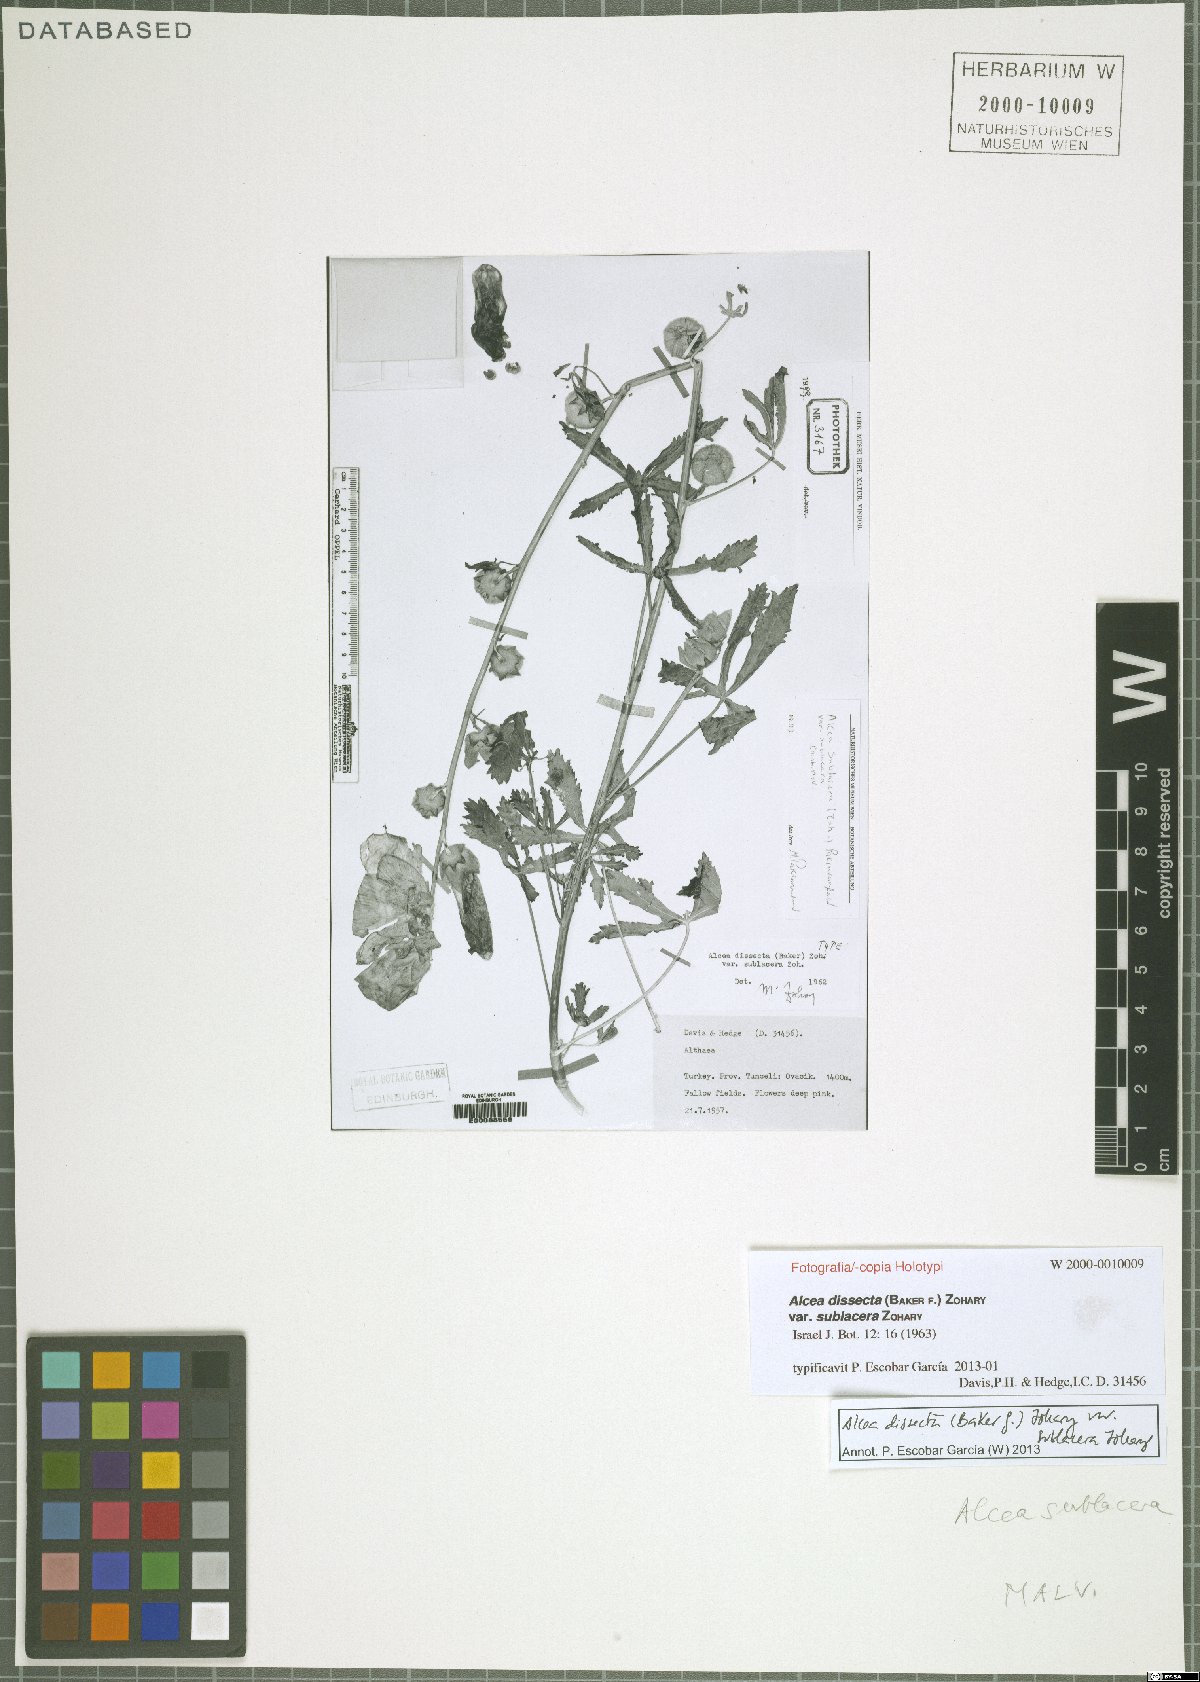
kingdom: Plantae
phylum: Tracheophyta
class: Magnoliopsida
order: Malvales
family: Malvaceae
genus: Alcea
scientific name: Alcea wilhelminae
